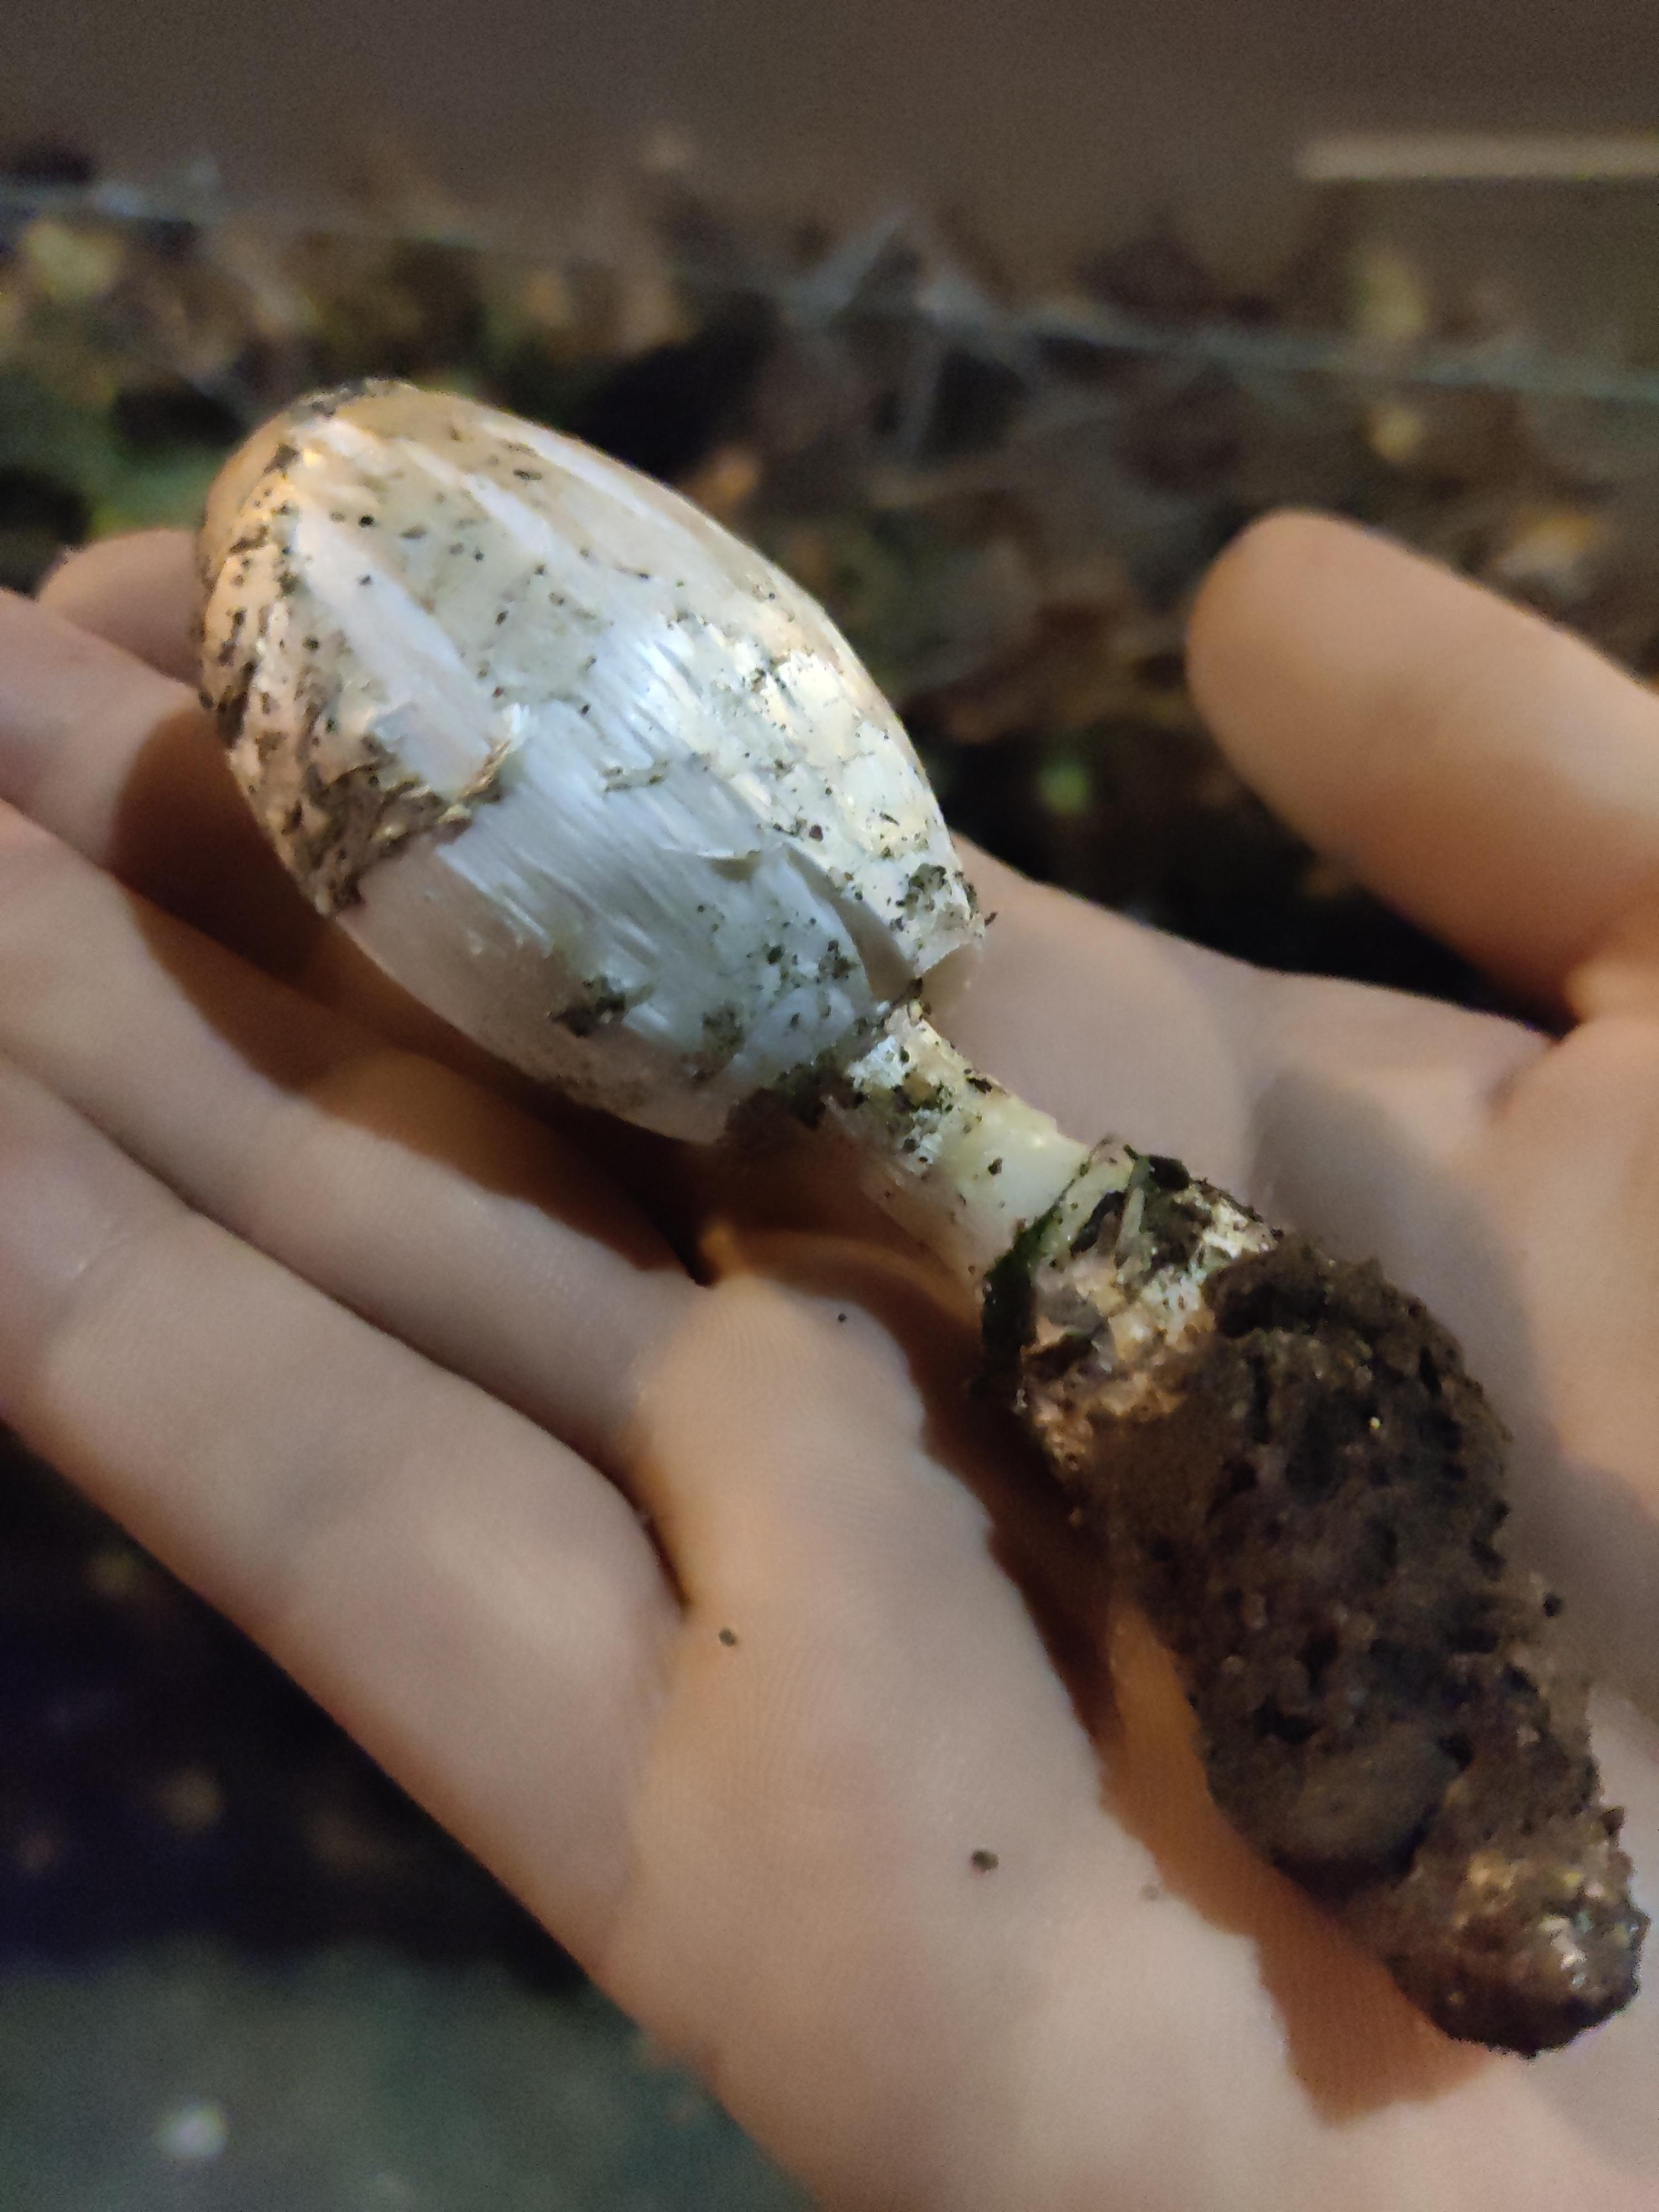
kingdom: Fungi
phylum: Basidiomycota
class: Agaricomycetes
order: Agaricales
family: Agaricaceae
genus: Coprinus
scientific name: Coprinus comatus
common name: stor parykhat
